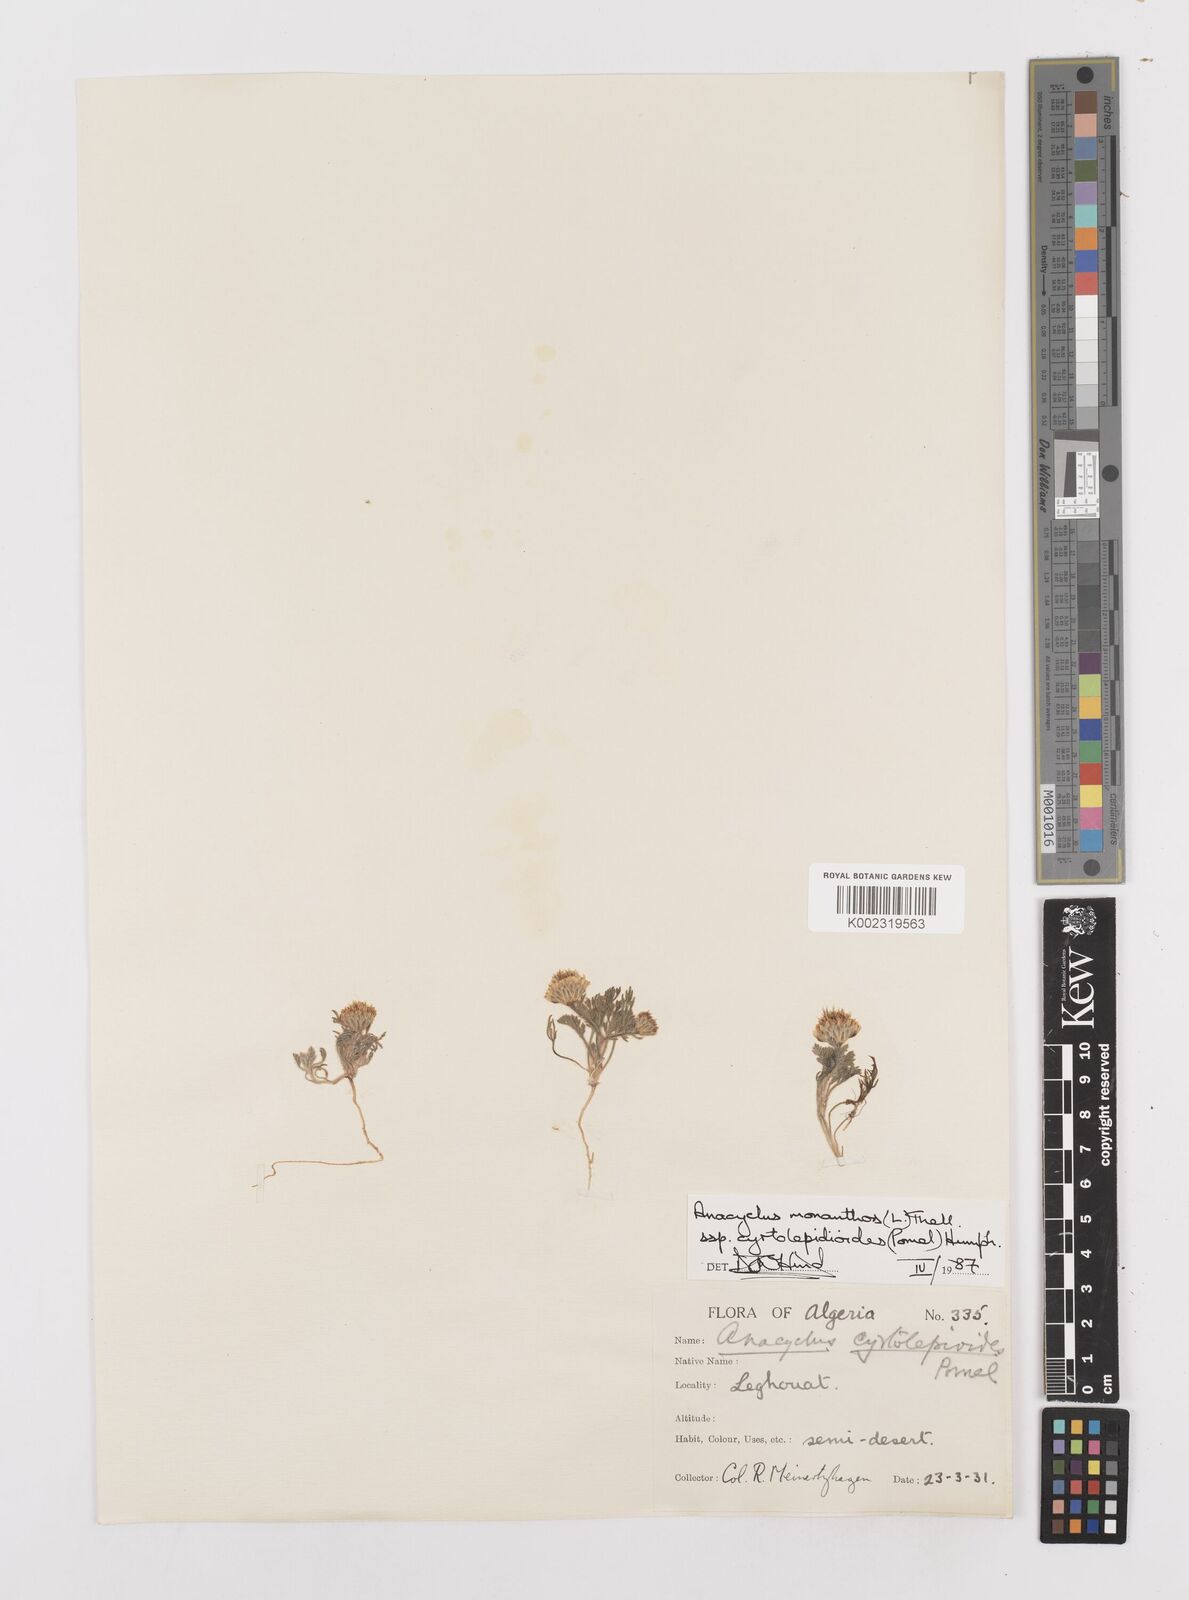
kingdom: Plantae
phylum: Tracheophyta
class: Magnoliopsida
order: Asterales
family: Asteraceae
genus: Anacyclus
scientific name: Anacyclus monanthos
